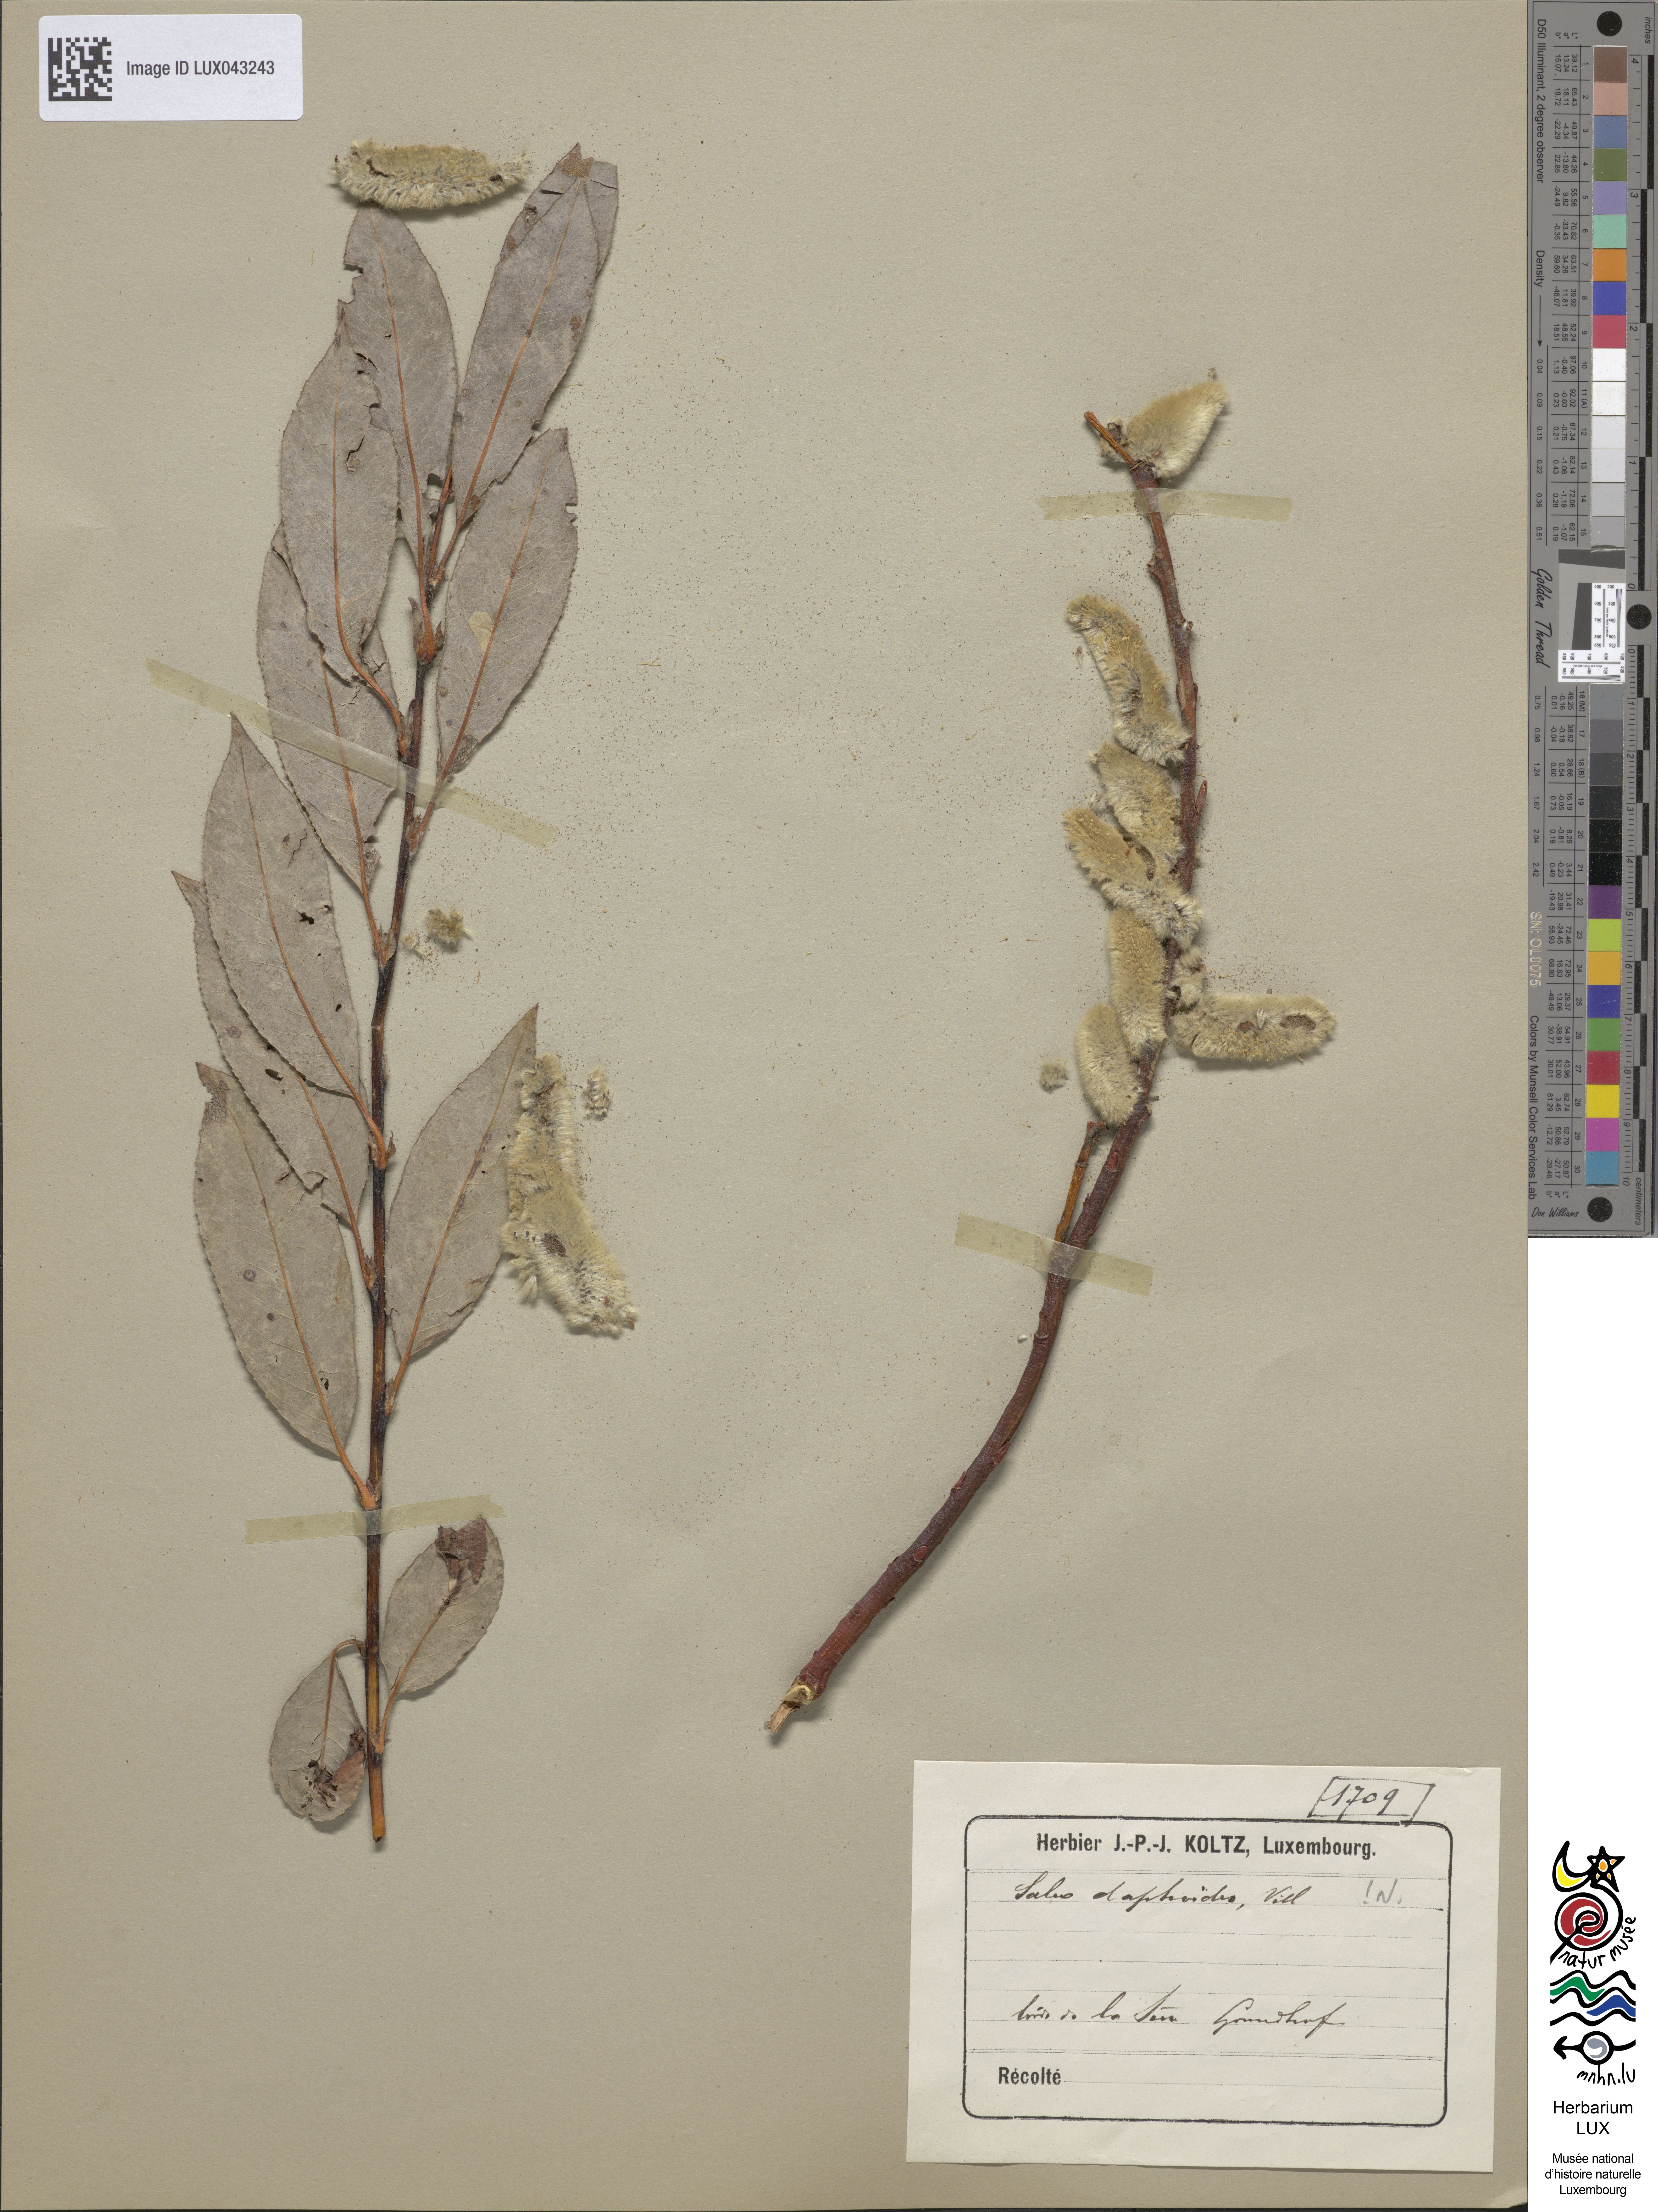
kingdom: Plantae
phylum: Tracheophyta
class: Magnoliopsida
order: Malpighiales
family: Salicaceae
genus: Salix
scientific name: Salix daphnoides
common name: European violet-willow
